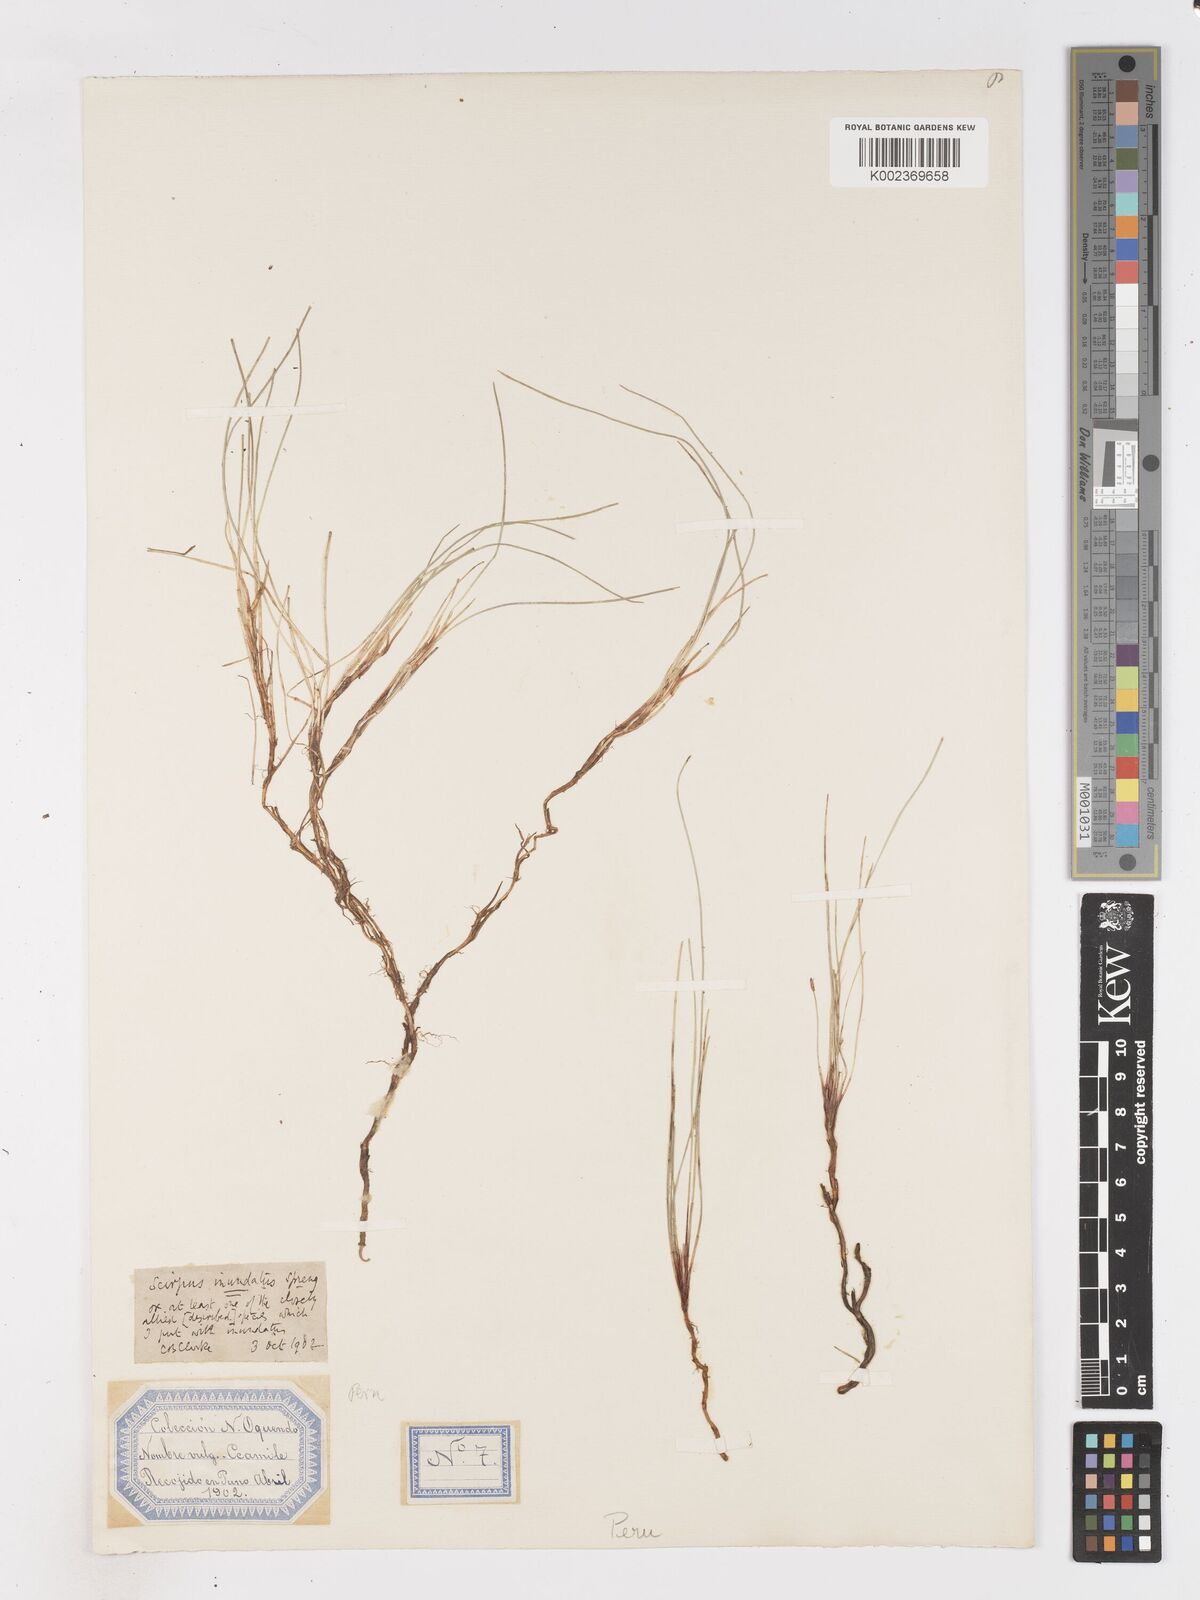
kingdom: Plantae
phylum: Tracheophyta
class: Liliopsida
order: Poales
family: Cyperaceae
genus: Isolepis
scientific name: Isolepis
